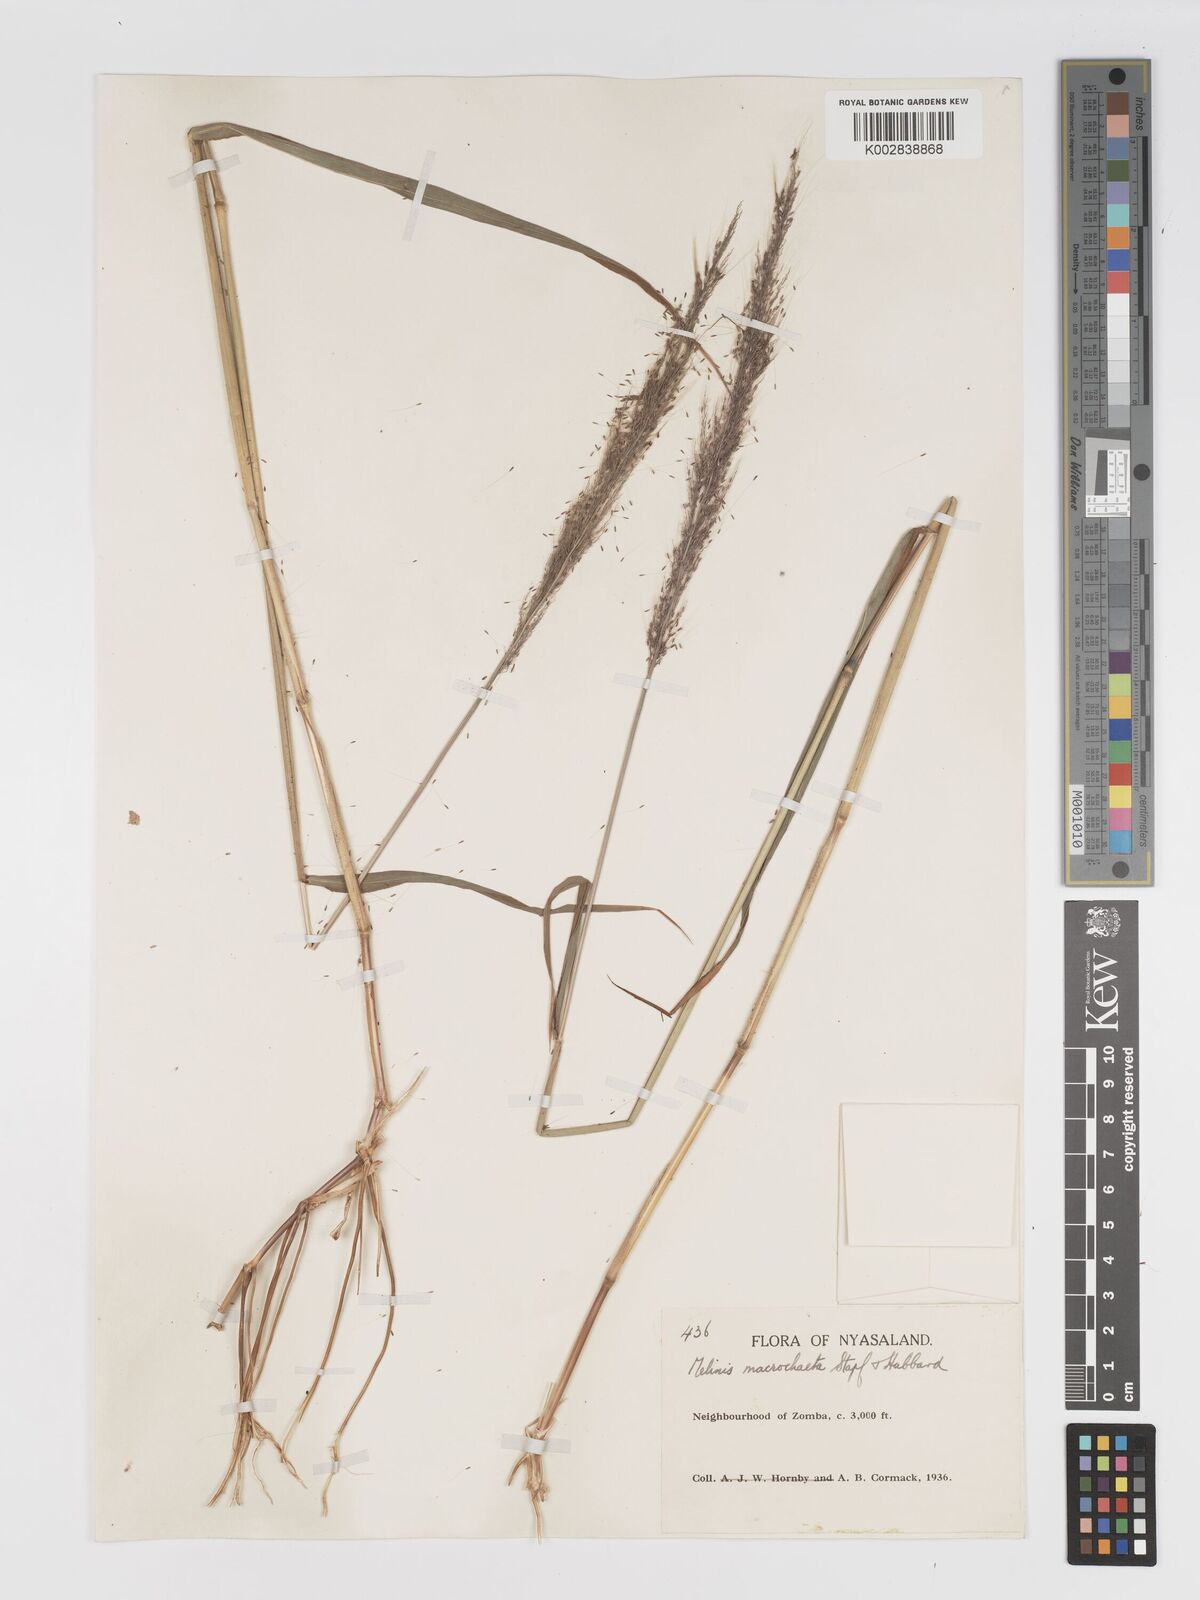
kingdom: Plantae
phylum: Tracheophyta
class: Liliopsida
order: Poales
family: Poaceae
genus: Melinis
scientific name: Melinis macrochaeta
